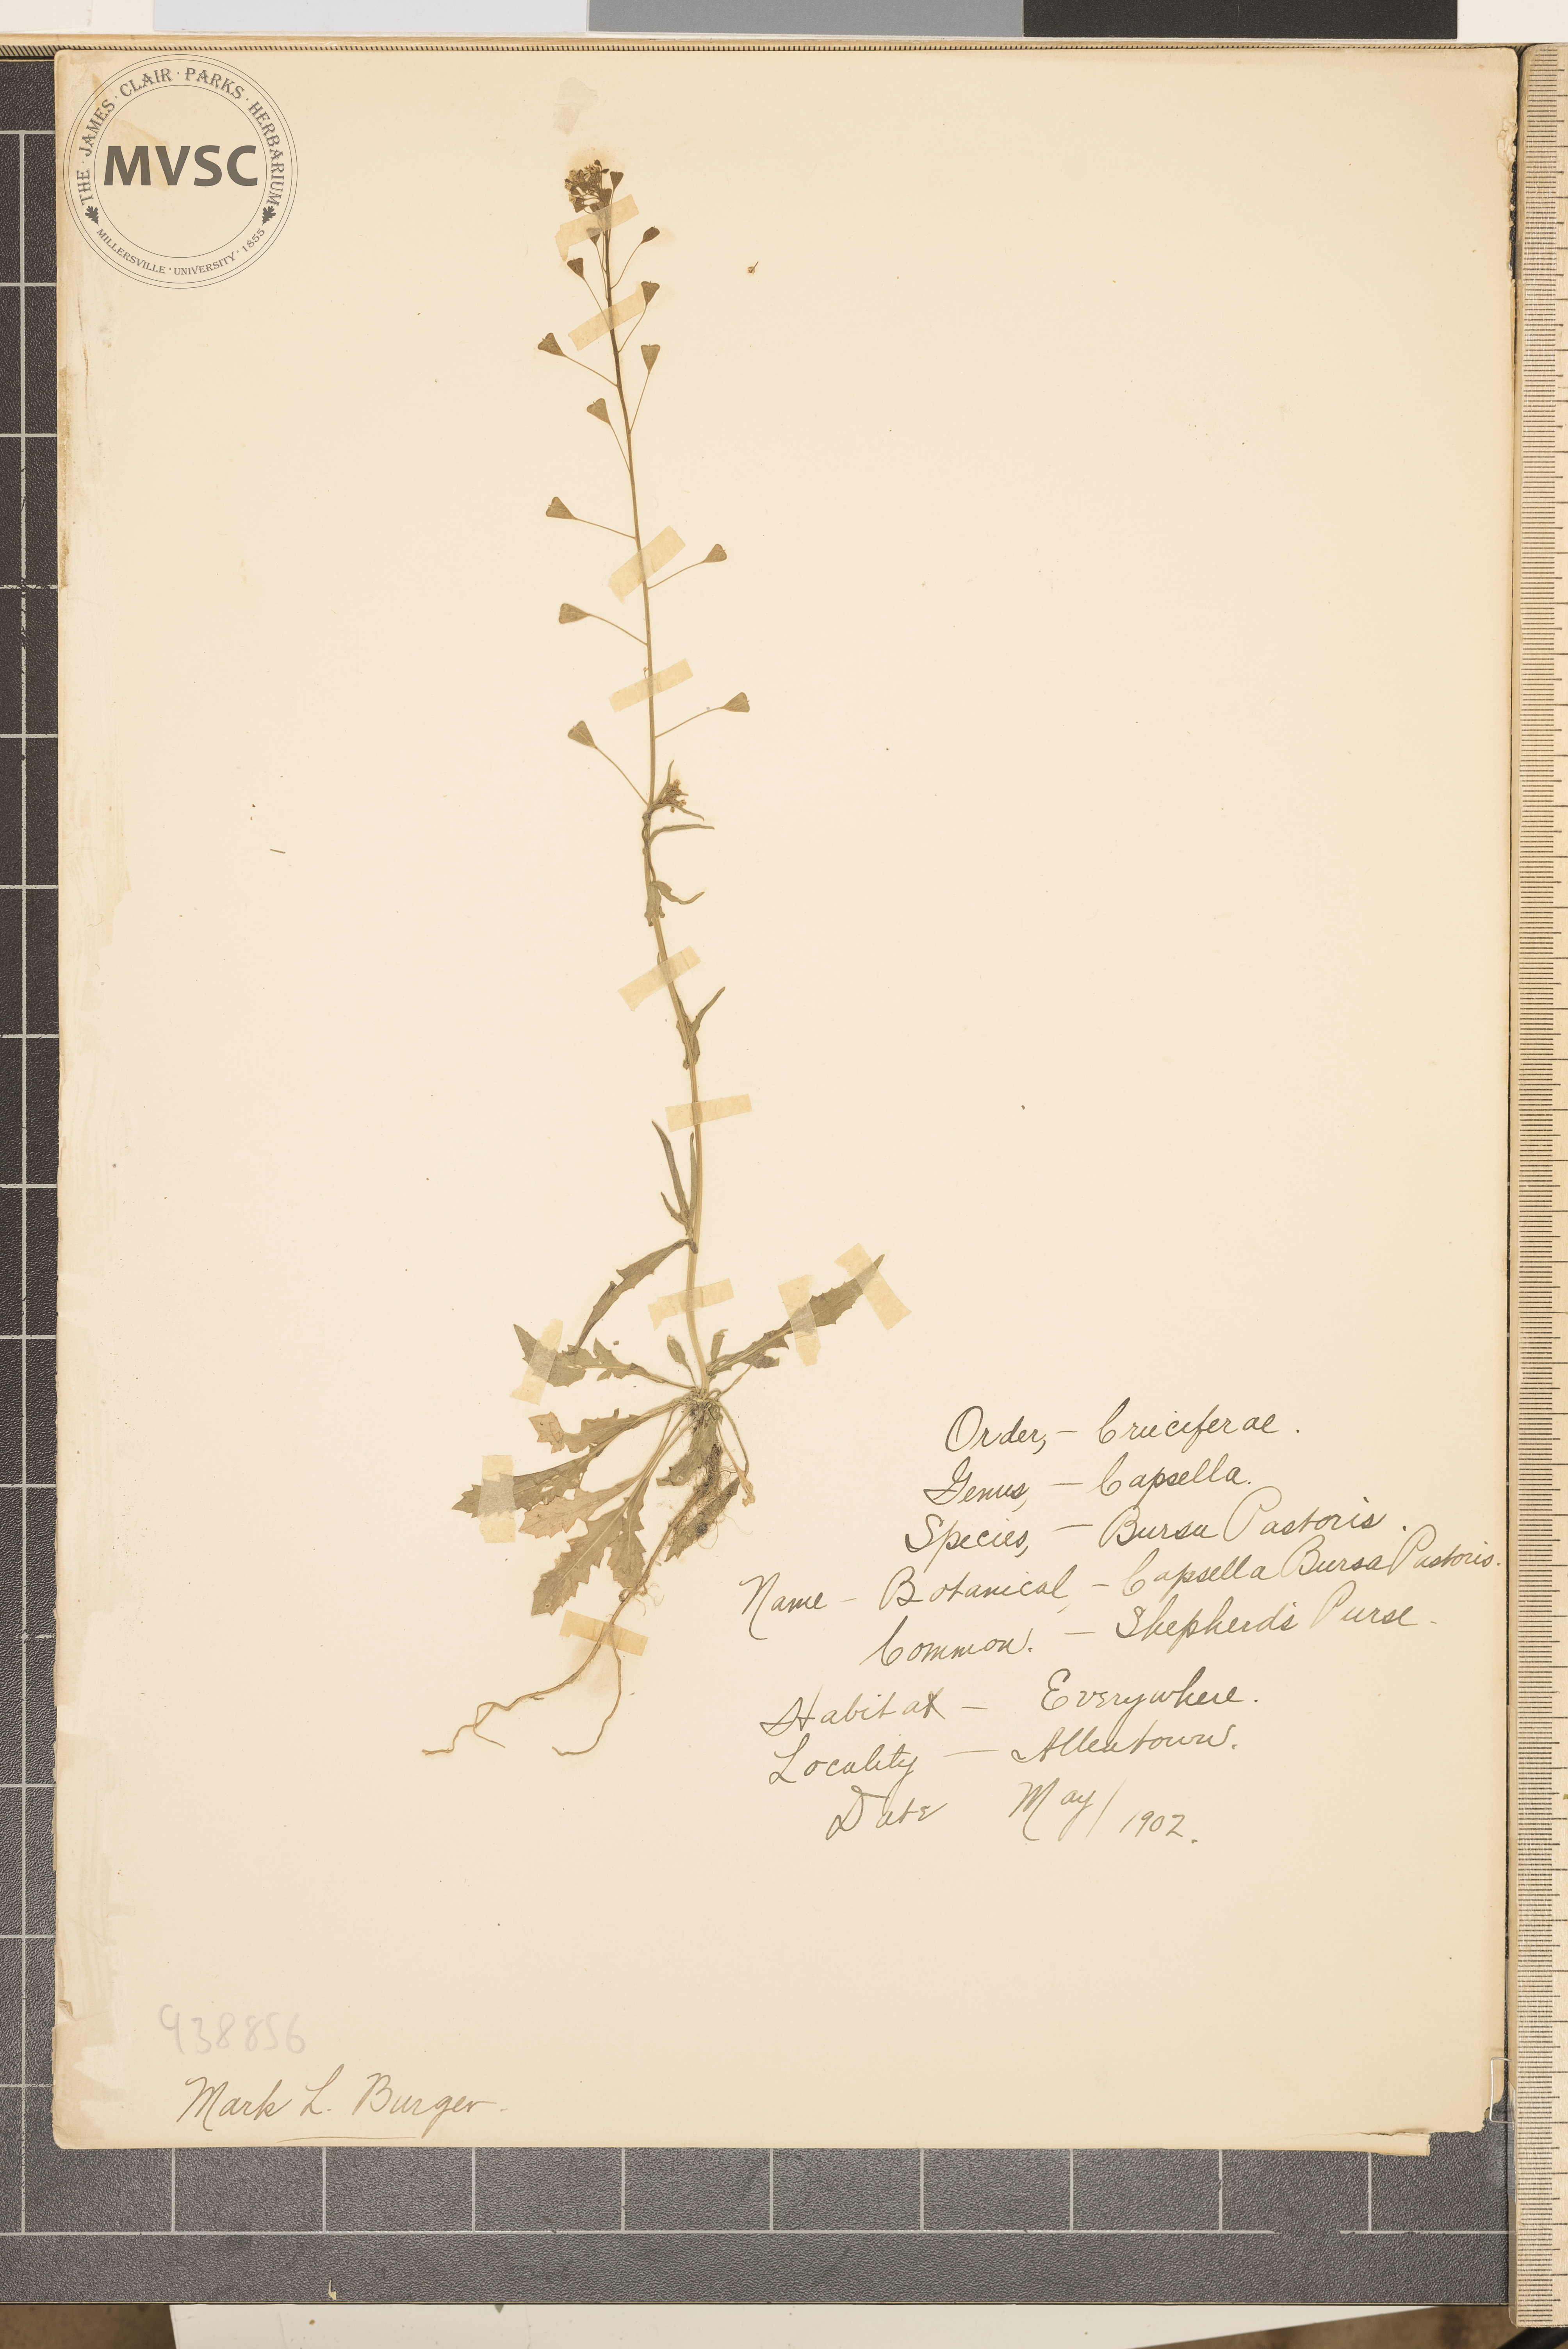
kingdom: Plantae
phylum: Tracheophyta
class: Magnoliopsida
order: Brassicales
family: Brassicaceae
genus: Capsella
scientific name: Capsella bursa-pastoris
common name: Shepherd's purse
